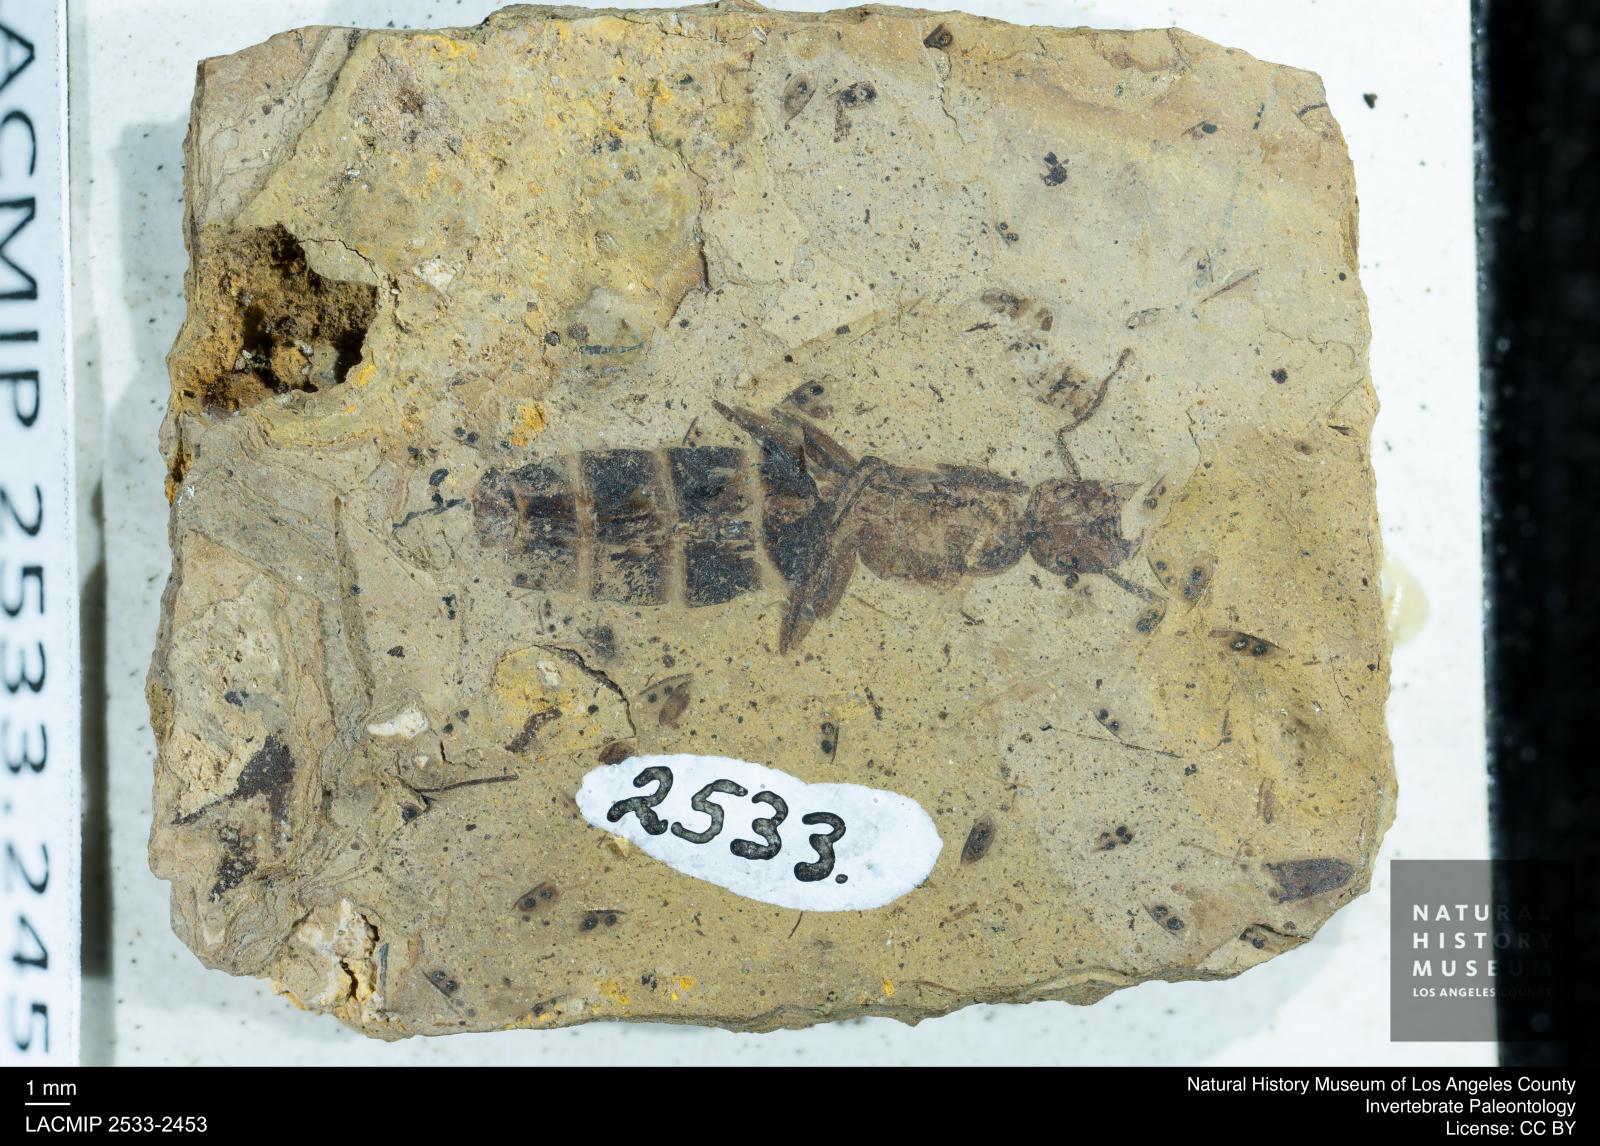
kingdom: Animalia
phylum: Arthropoda
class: Insecta
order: Hymenoptera
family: Formicidae
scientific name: Formicidae
